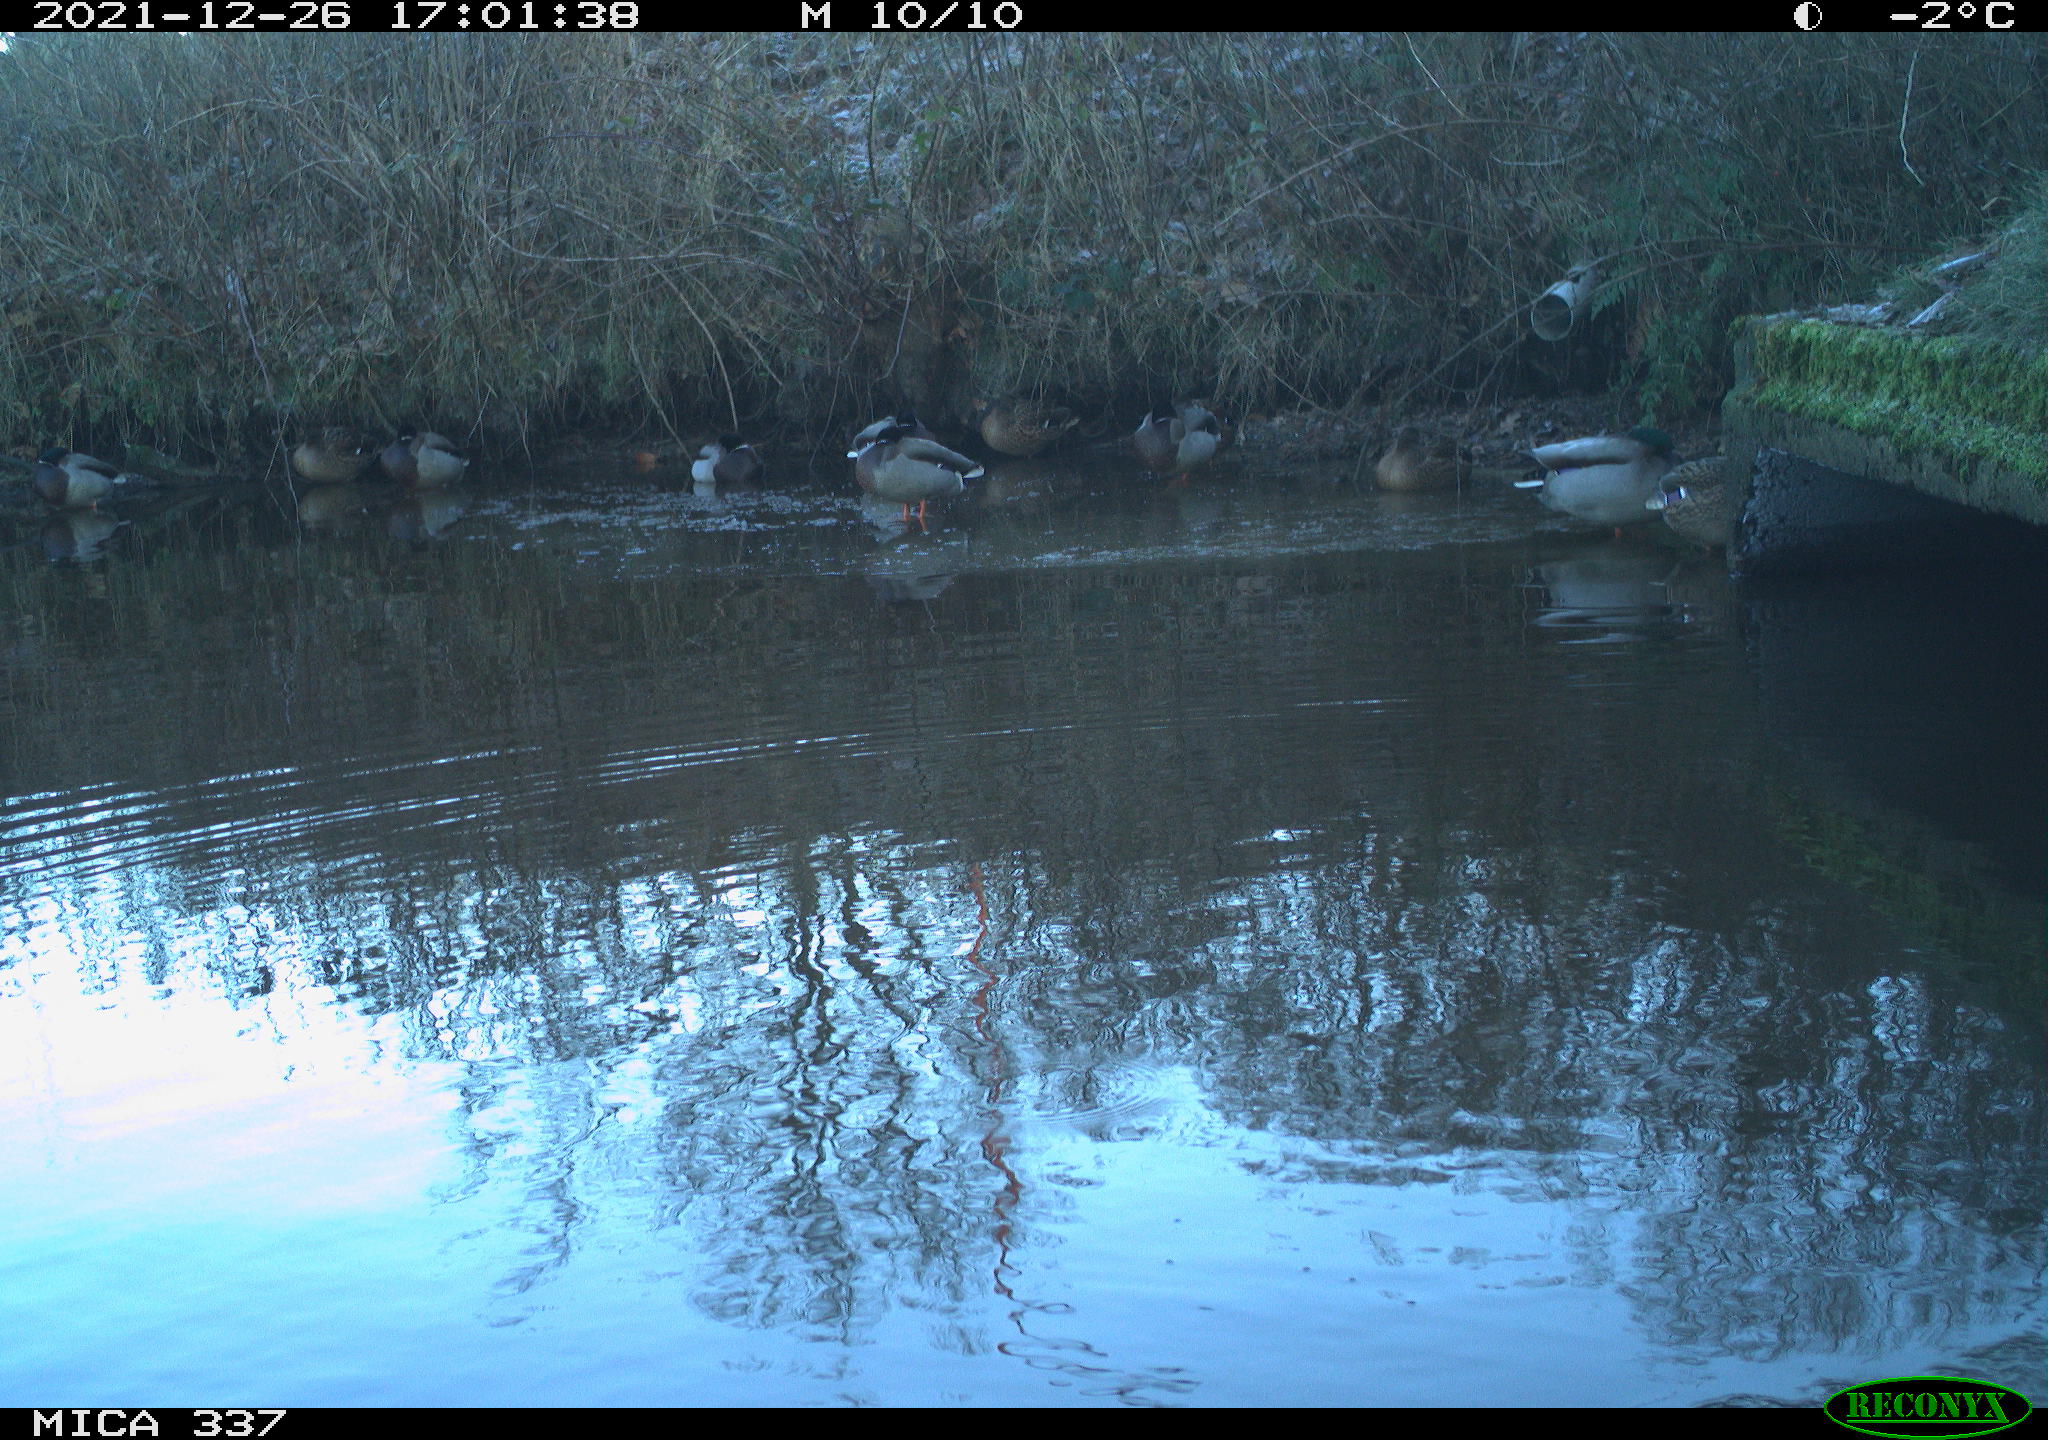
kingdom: Animalia
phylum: Chordata
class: Aves
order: Anseriformes
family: Anatidae
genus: Anas
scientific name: Anas platyrhynchos
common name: Mallard
